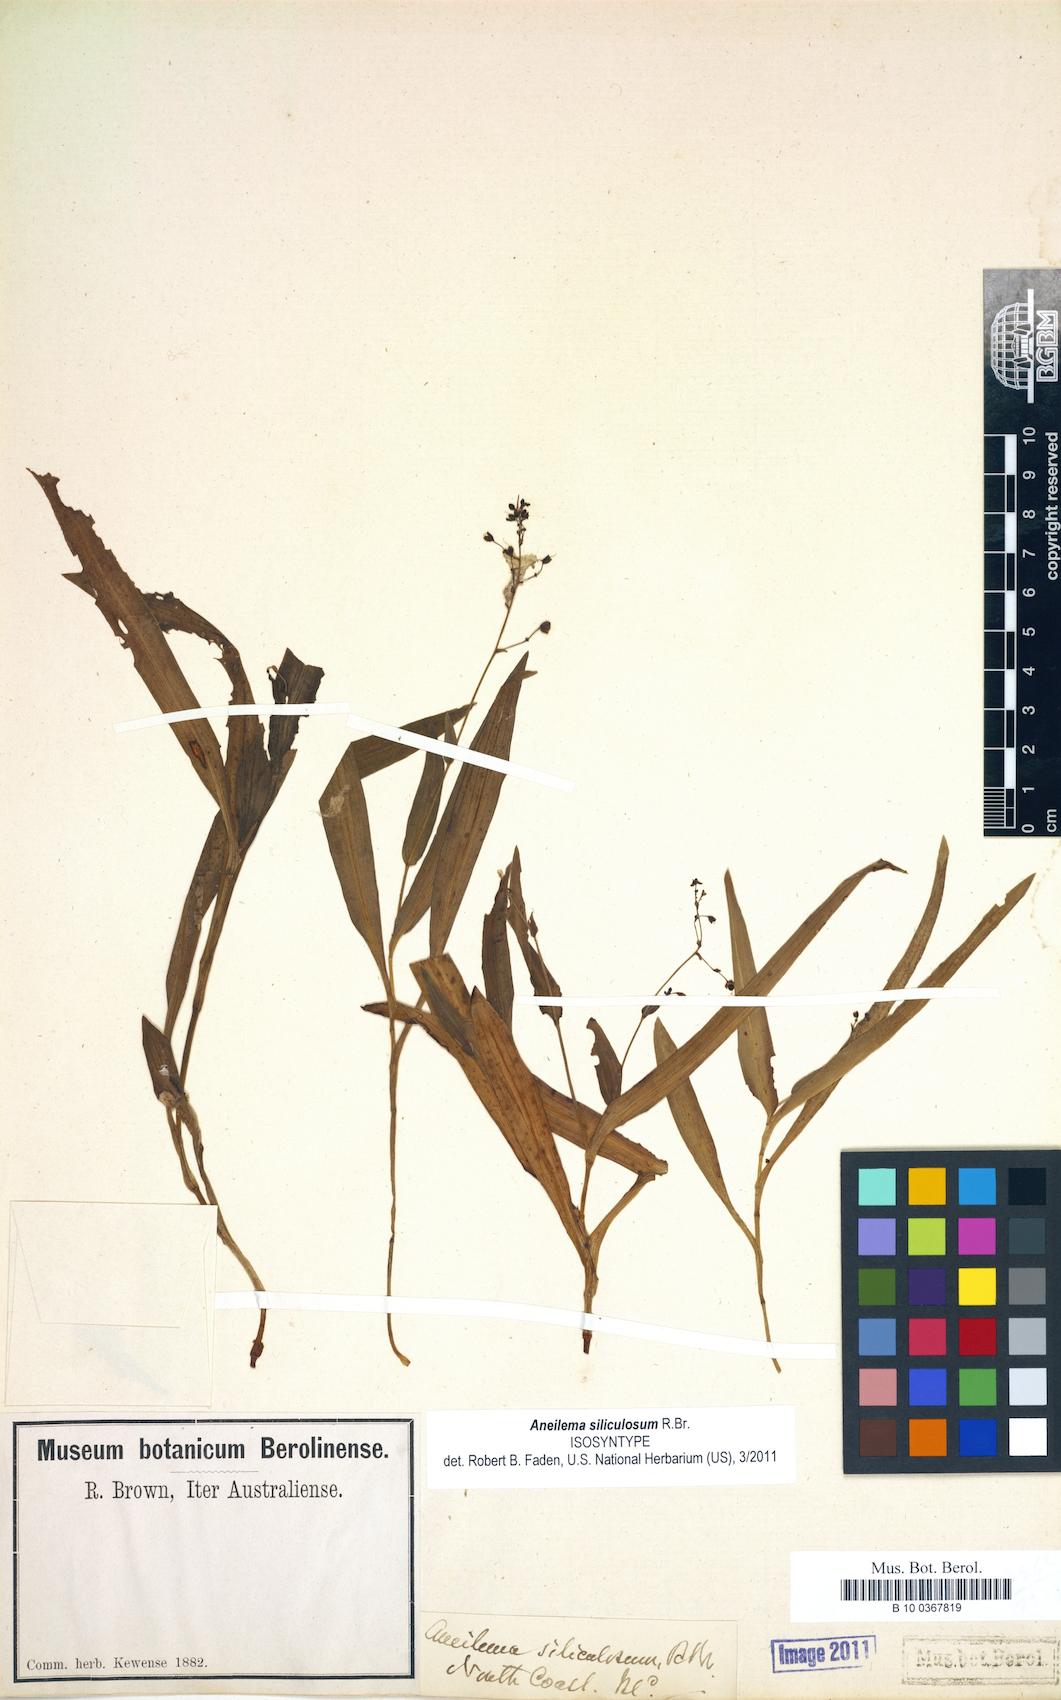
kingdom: Plantae
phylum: Tracheophyta
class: Liliopsida
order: Commelinales
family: Commelinaceae
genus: Aneilema
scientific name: Aneilema siliculosum
